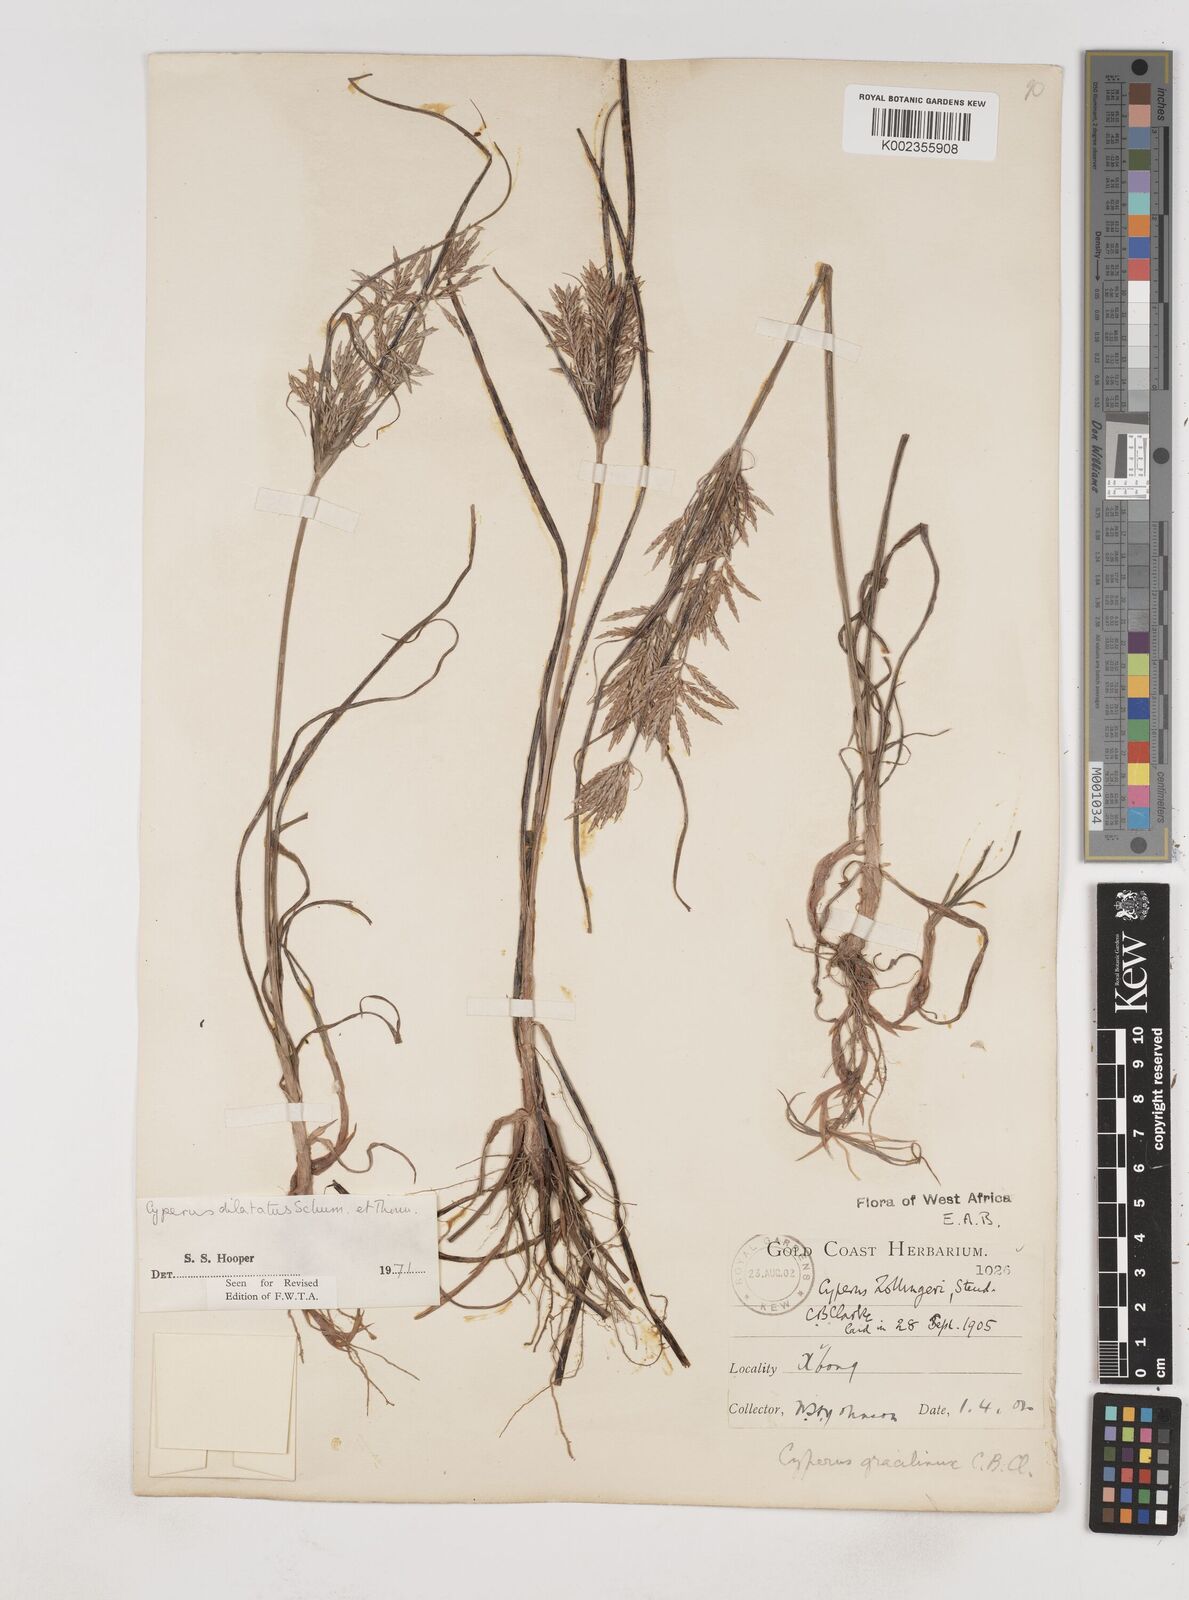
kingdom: Plantae
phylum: Tracheophyta
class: Liliopsida
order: Poales
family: Cyperaceae
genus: Cyperus
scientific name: Cyperus dilatatus
